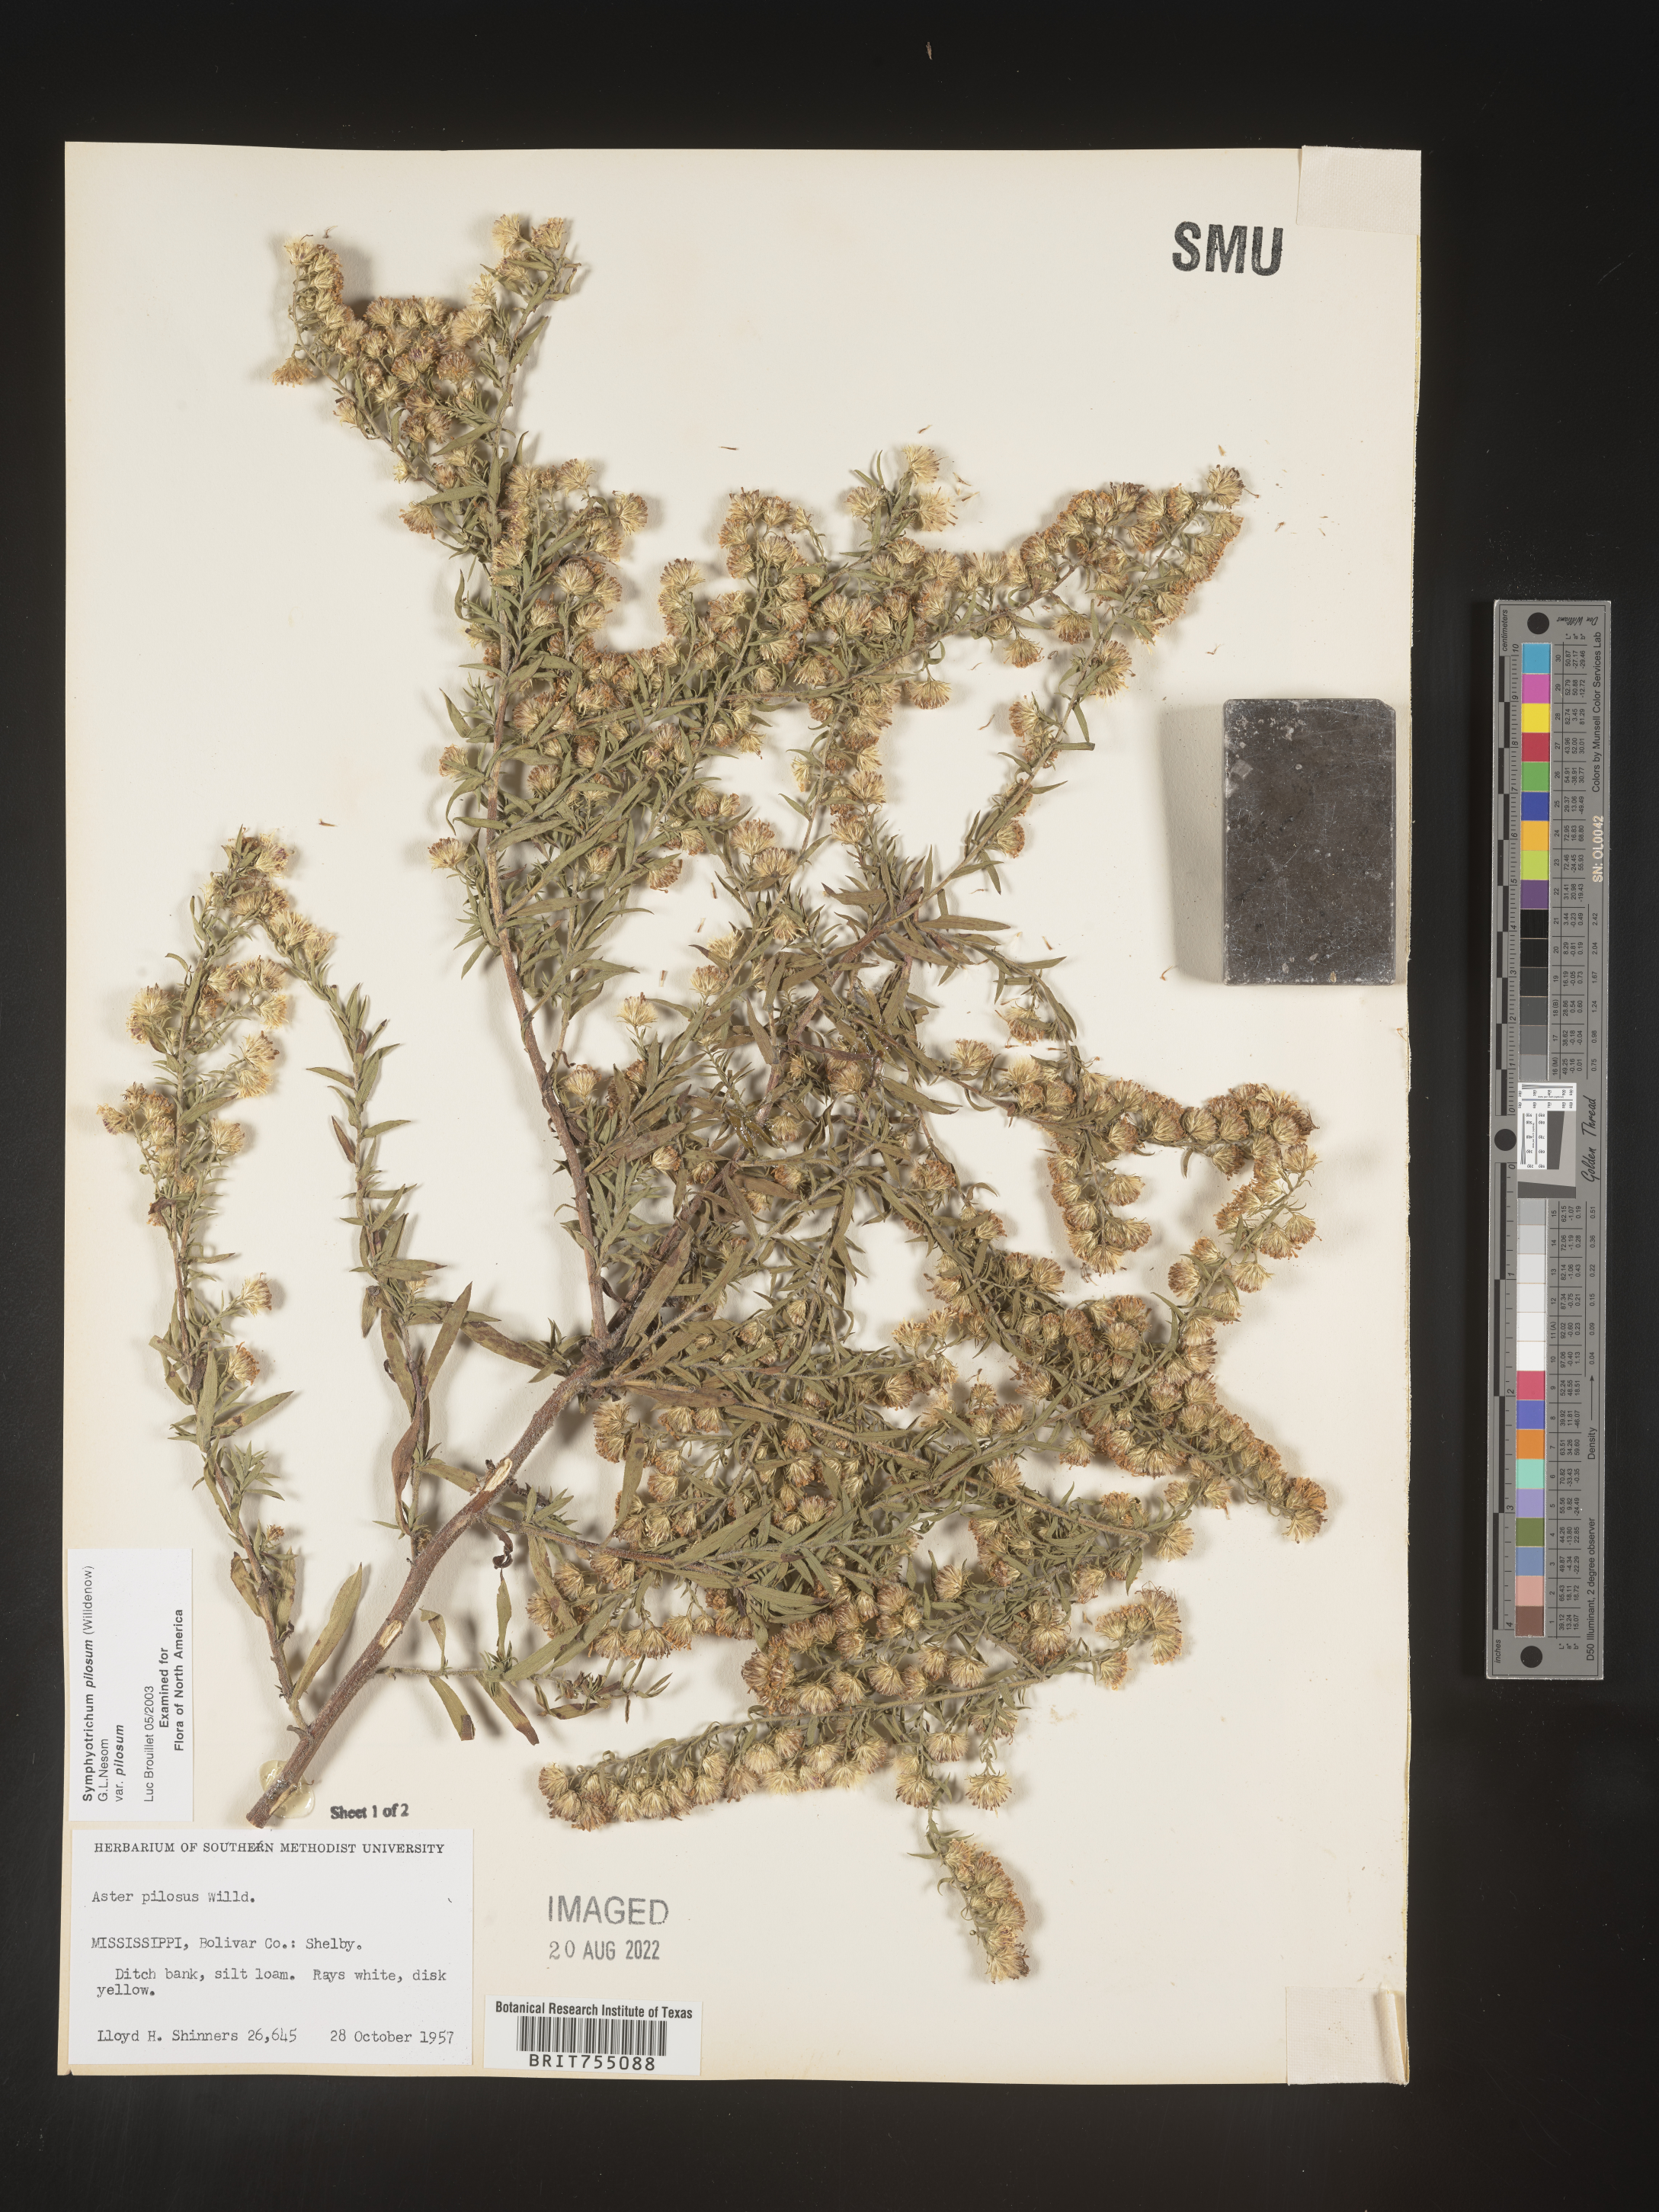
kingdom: Plantae
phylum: Tracheophyta
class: Magnoliopsida
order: Asterales
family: Asteraceae
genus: Symphyotrichum
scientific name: Symphyotrichum pilosum
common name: Awl aster
